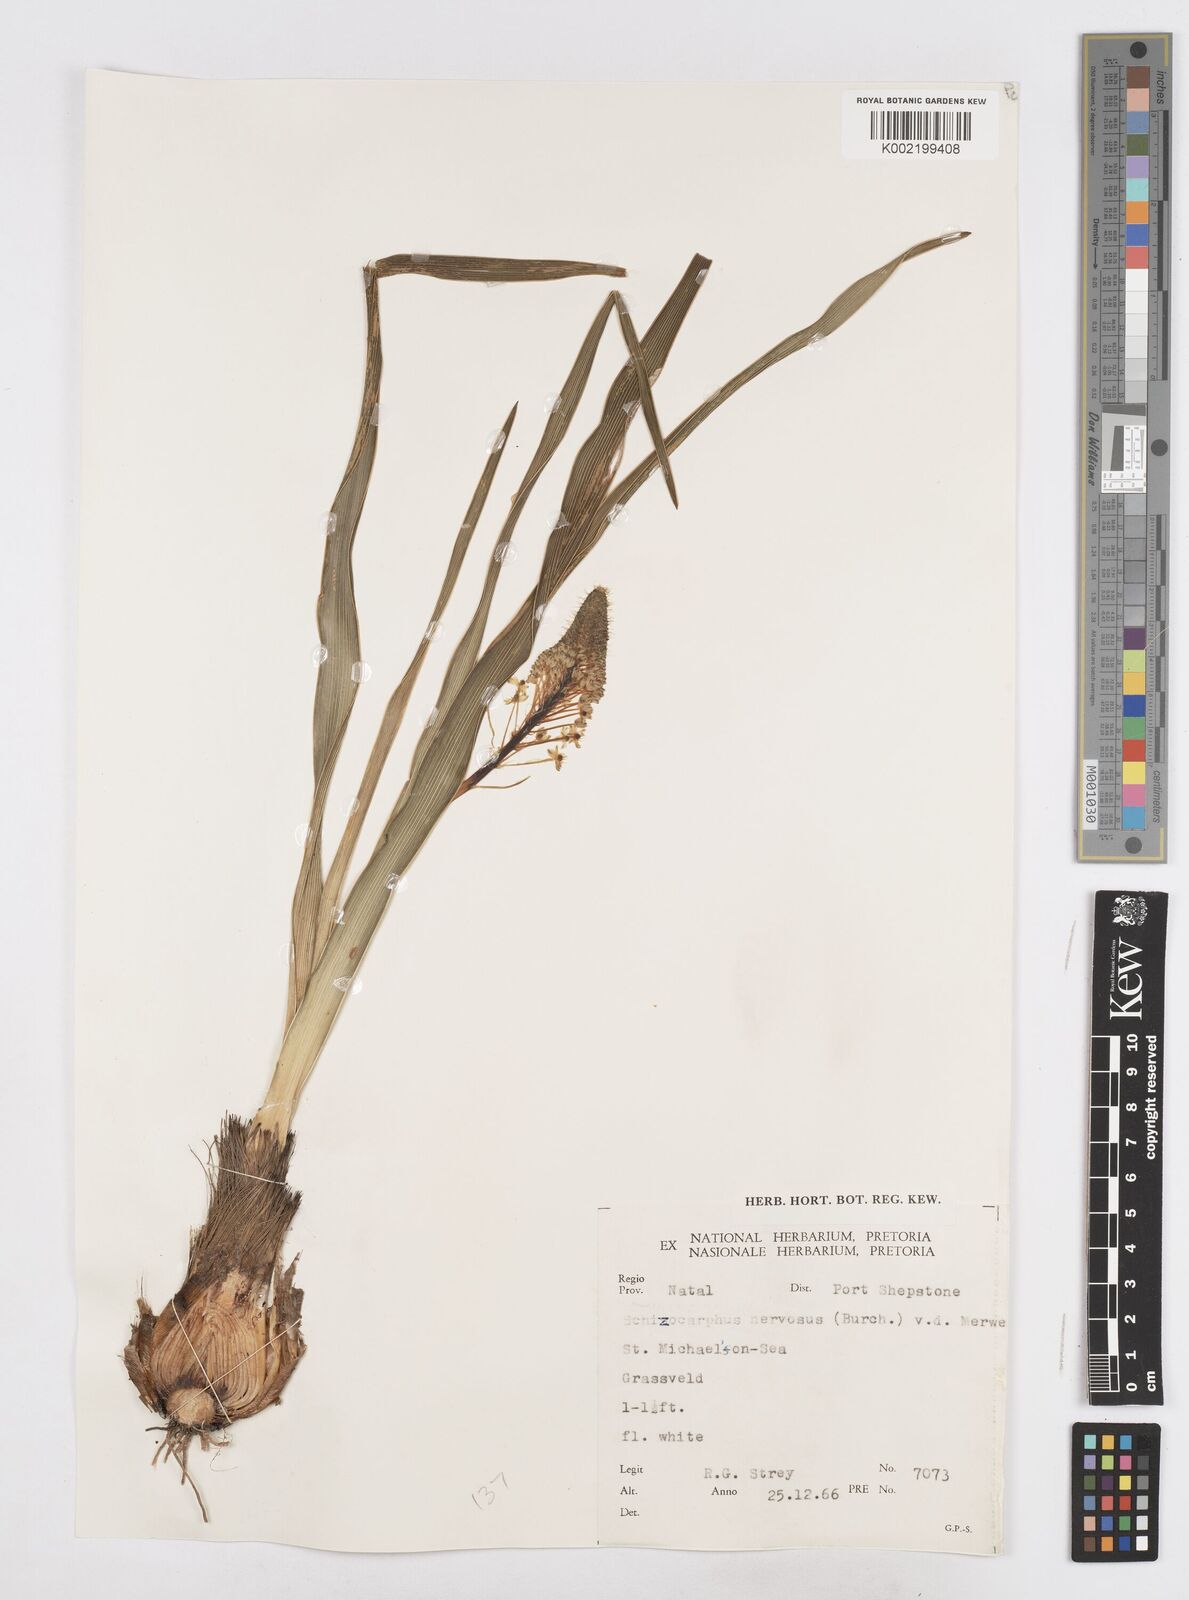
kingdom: Plantae
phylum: Tracheophyta
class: Liliopsida
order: Asparagales
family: Asparagaceae
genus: Schizocarphus
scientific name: Schizocarphus nervosus
